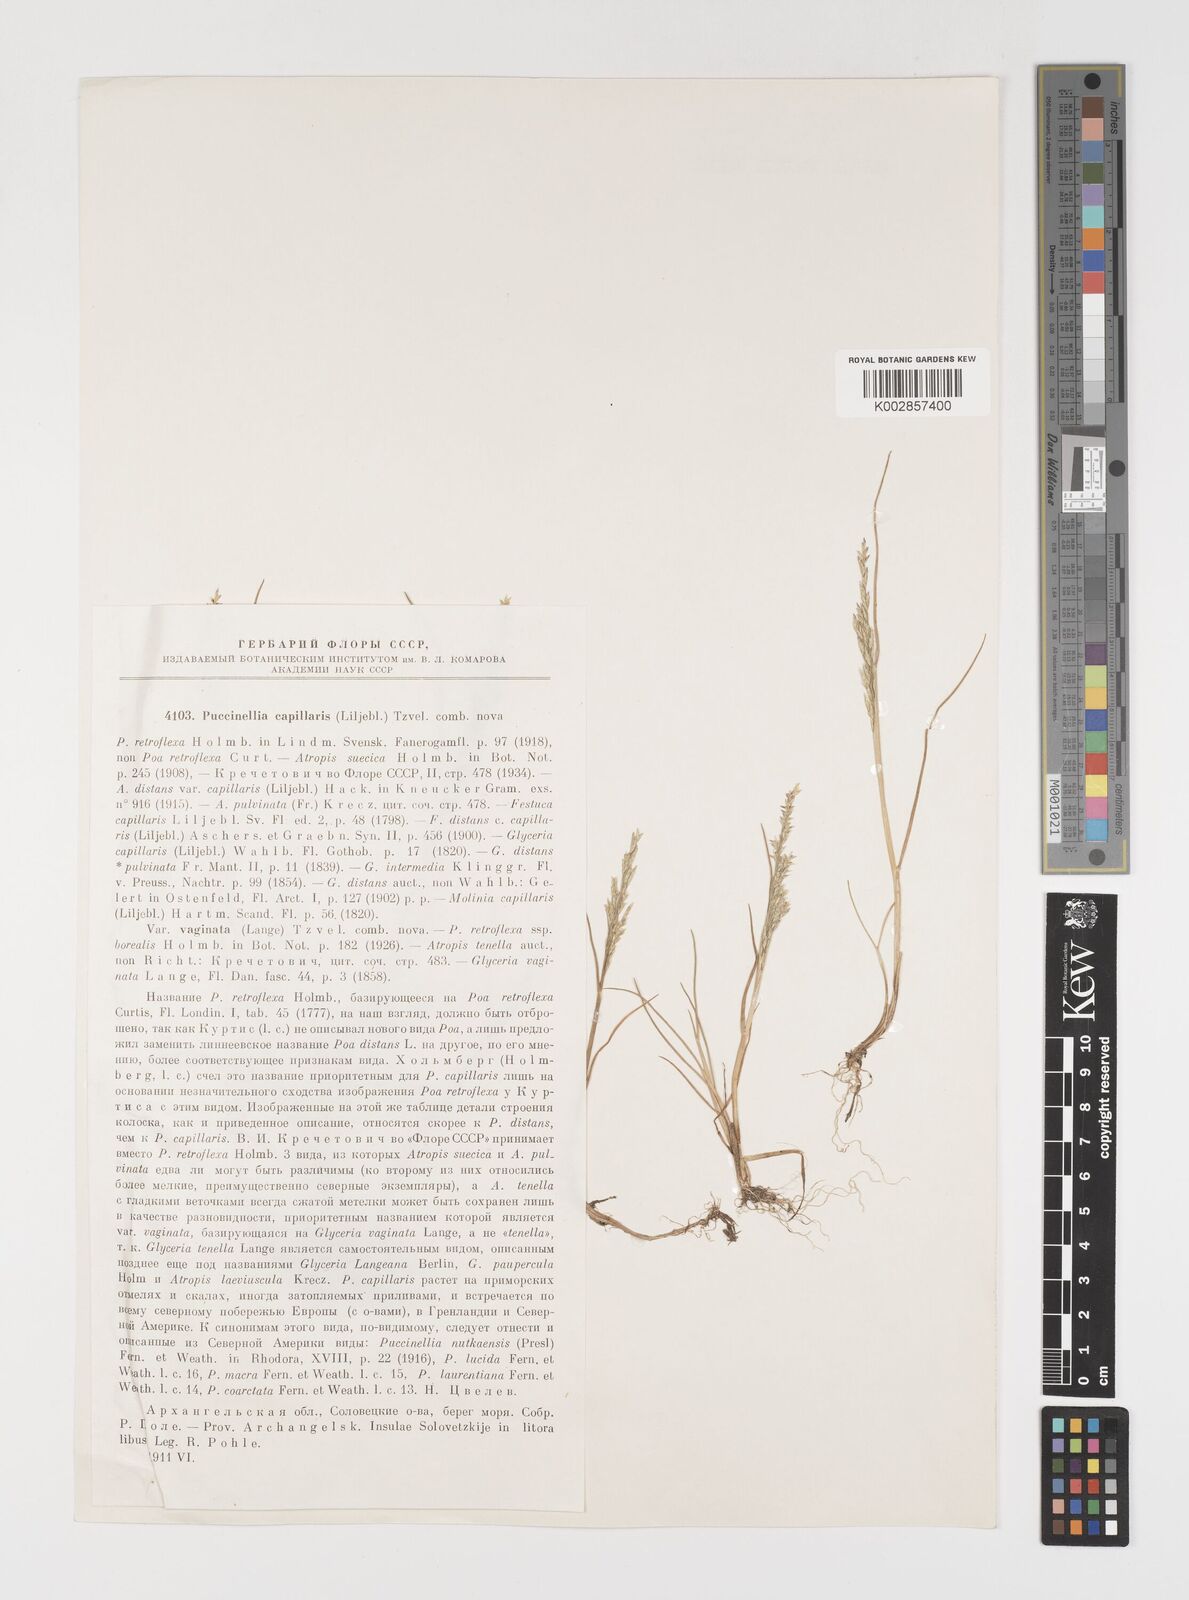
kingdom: Plantae
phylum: Tracheophyta
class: Liliopsida
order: Poales
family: Poaceae
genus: Puccinellia
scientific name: Puccinellia distans
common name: Weeping alkaligrass
